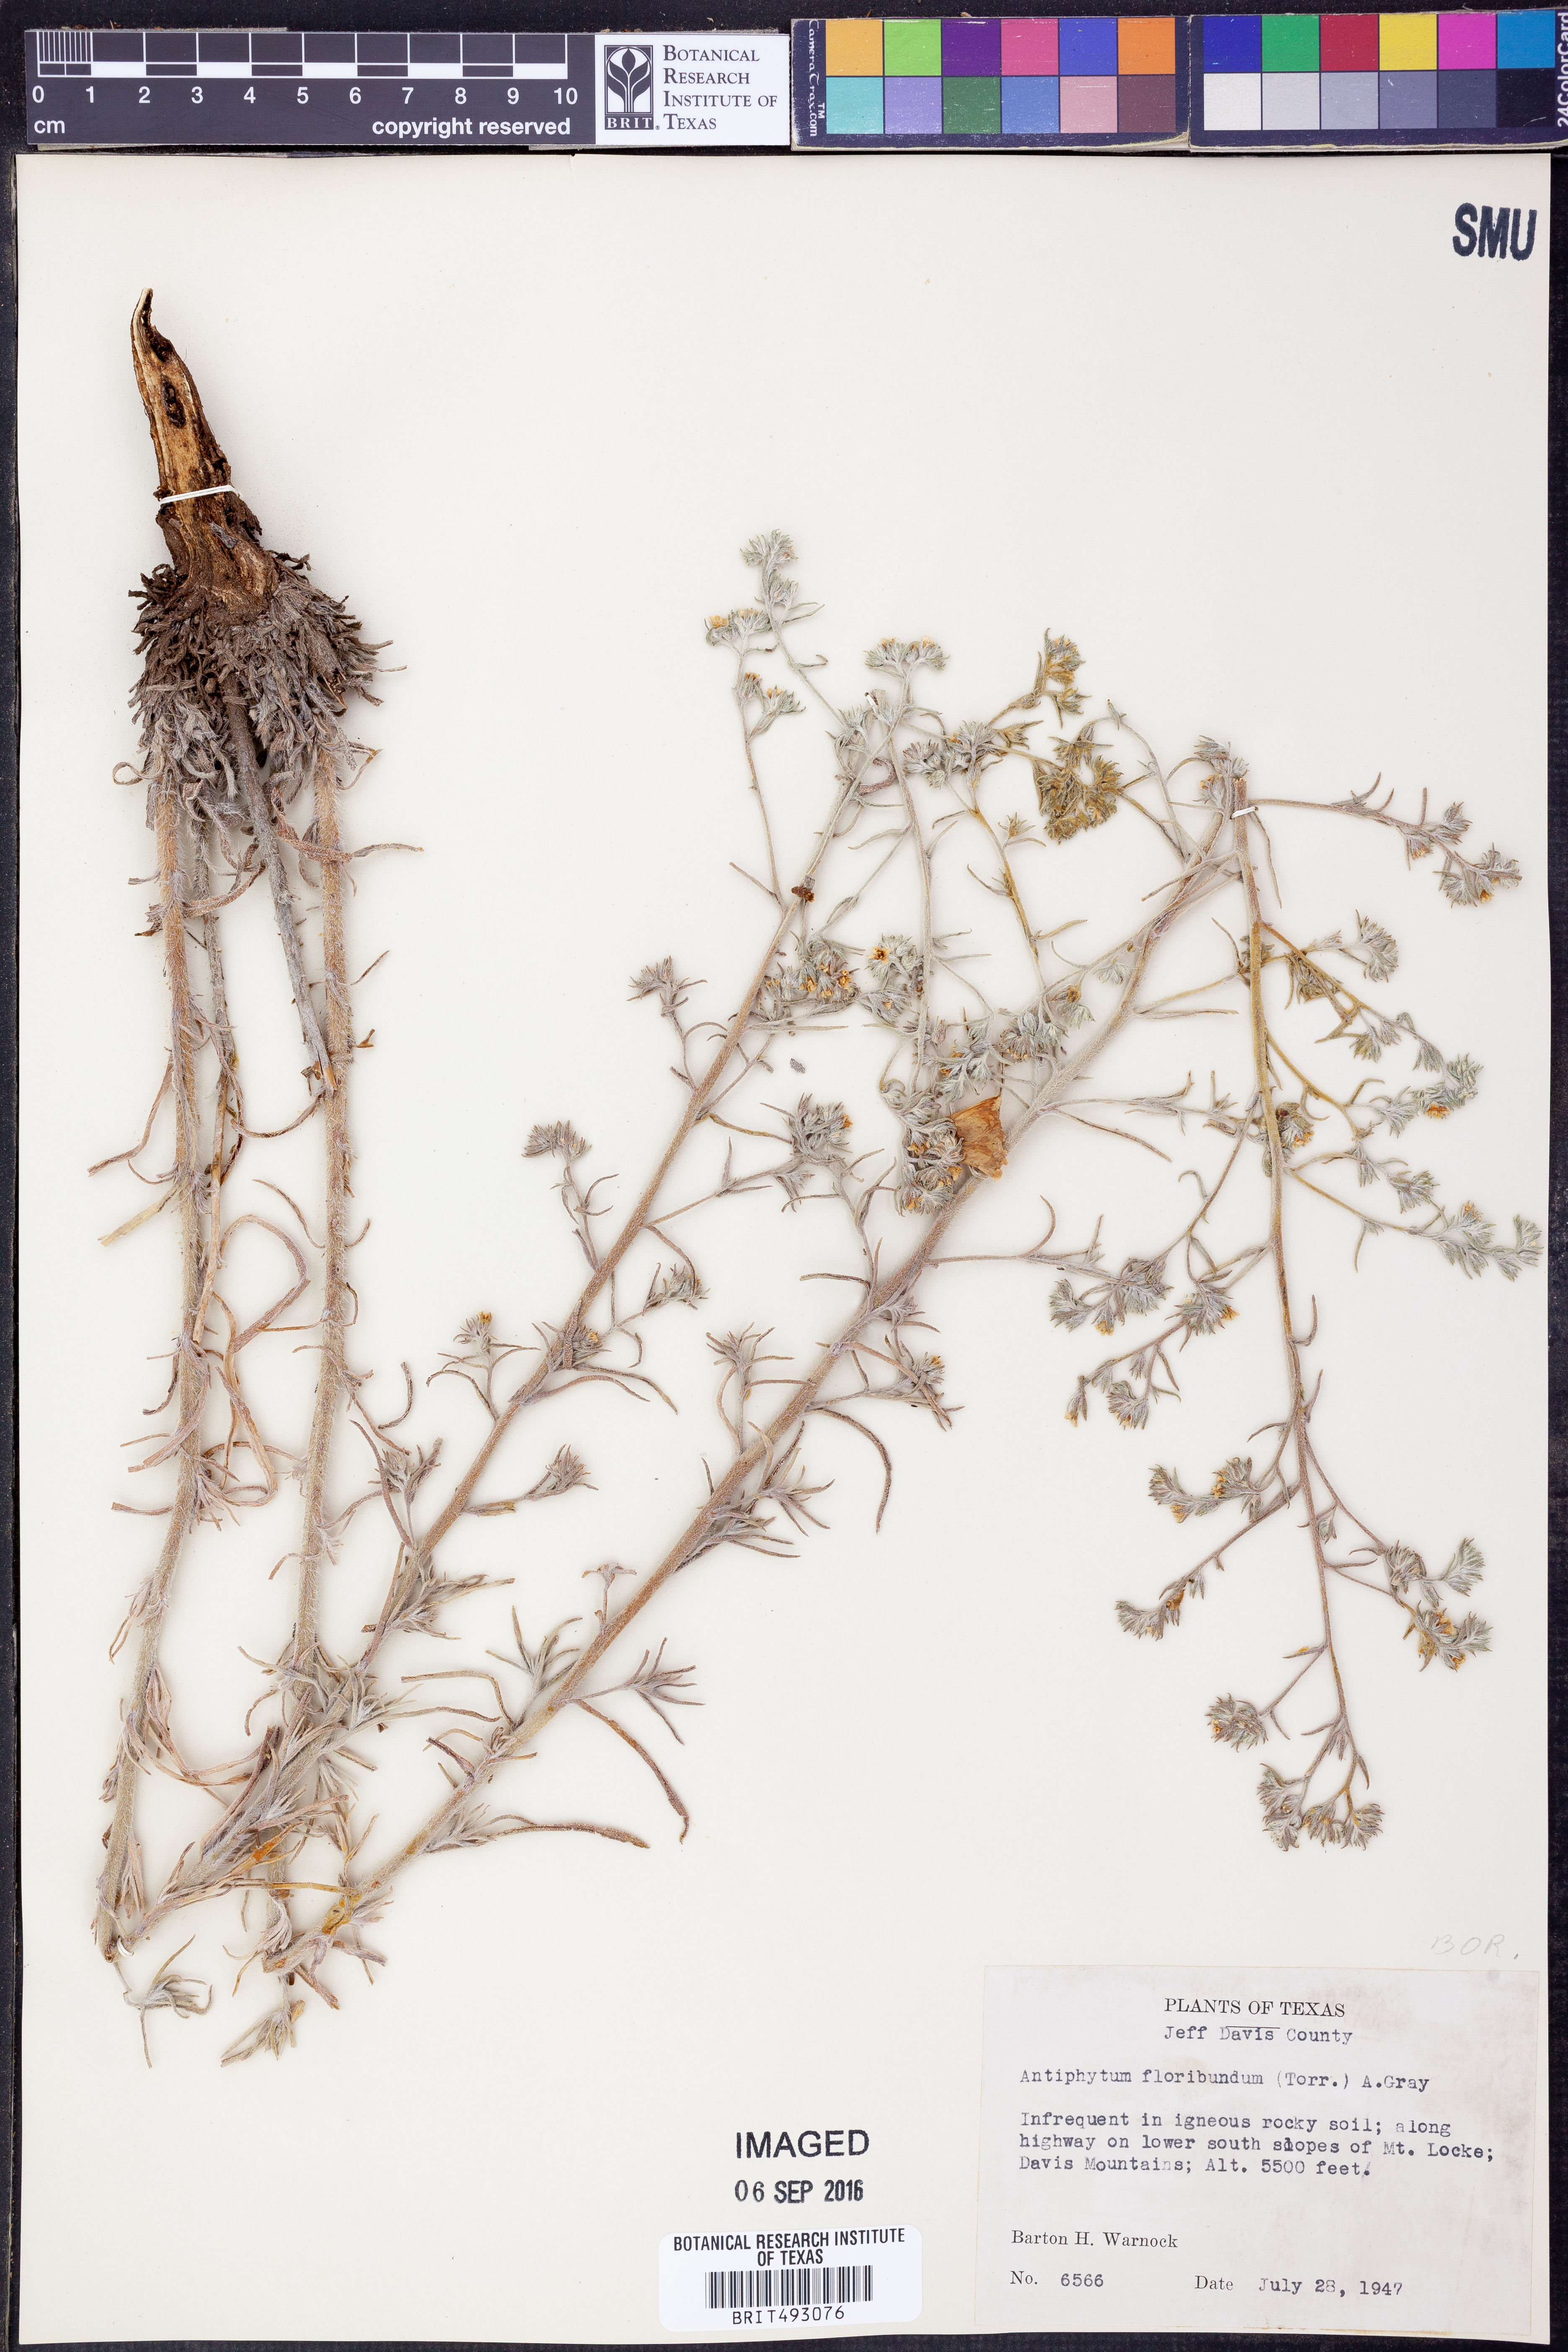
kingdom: Plantae
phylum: Tracheophyta
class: Magnoliopsida
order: Boraginales
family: Boraginaceae
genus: Antiphytum
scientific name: Antiphytum floribunda
